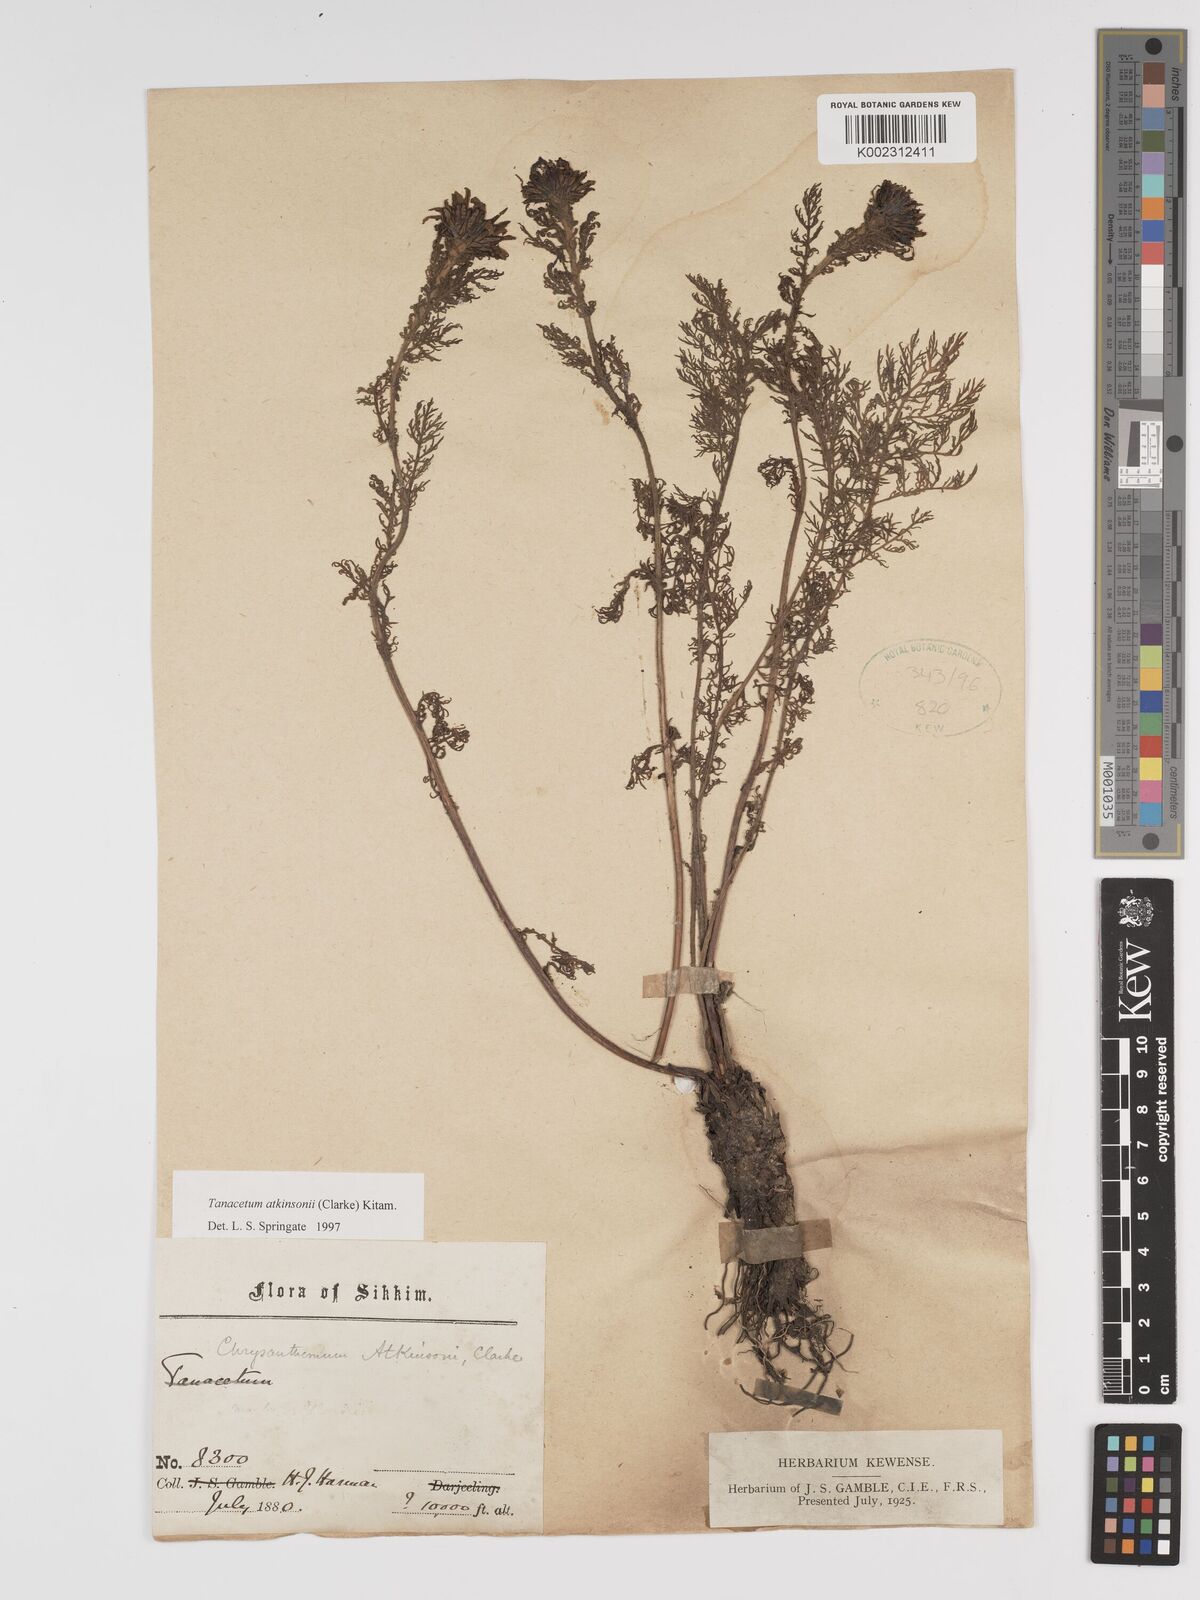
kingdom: Plantae
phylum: Tracheophyta
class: Magnoliopsida
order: Asterales
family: Asteraceae
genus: Tanacetum
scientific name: Tanacetum atkinsonii
